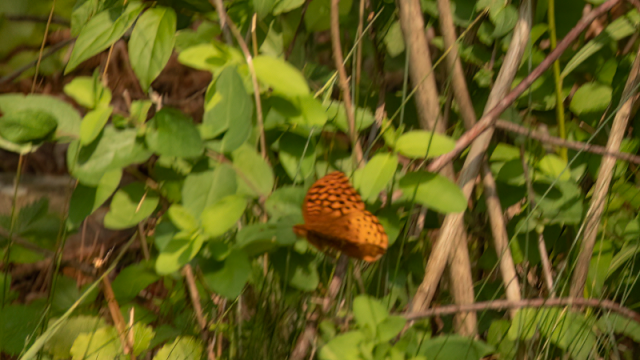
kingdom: Animalia
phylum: Arthropoda
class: Insecta
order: Lepidoptera
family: Nymphalidae
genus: Speyeria
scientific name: Speyeria cybele
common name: Great Spangled Fritillary
